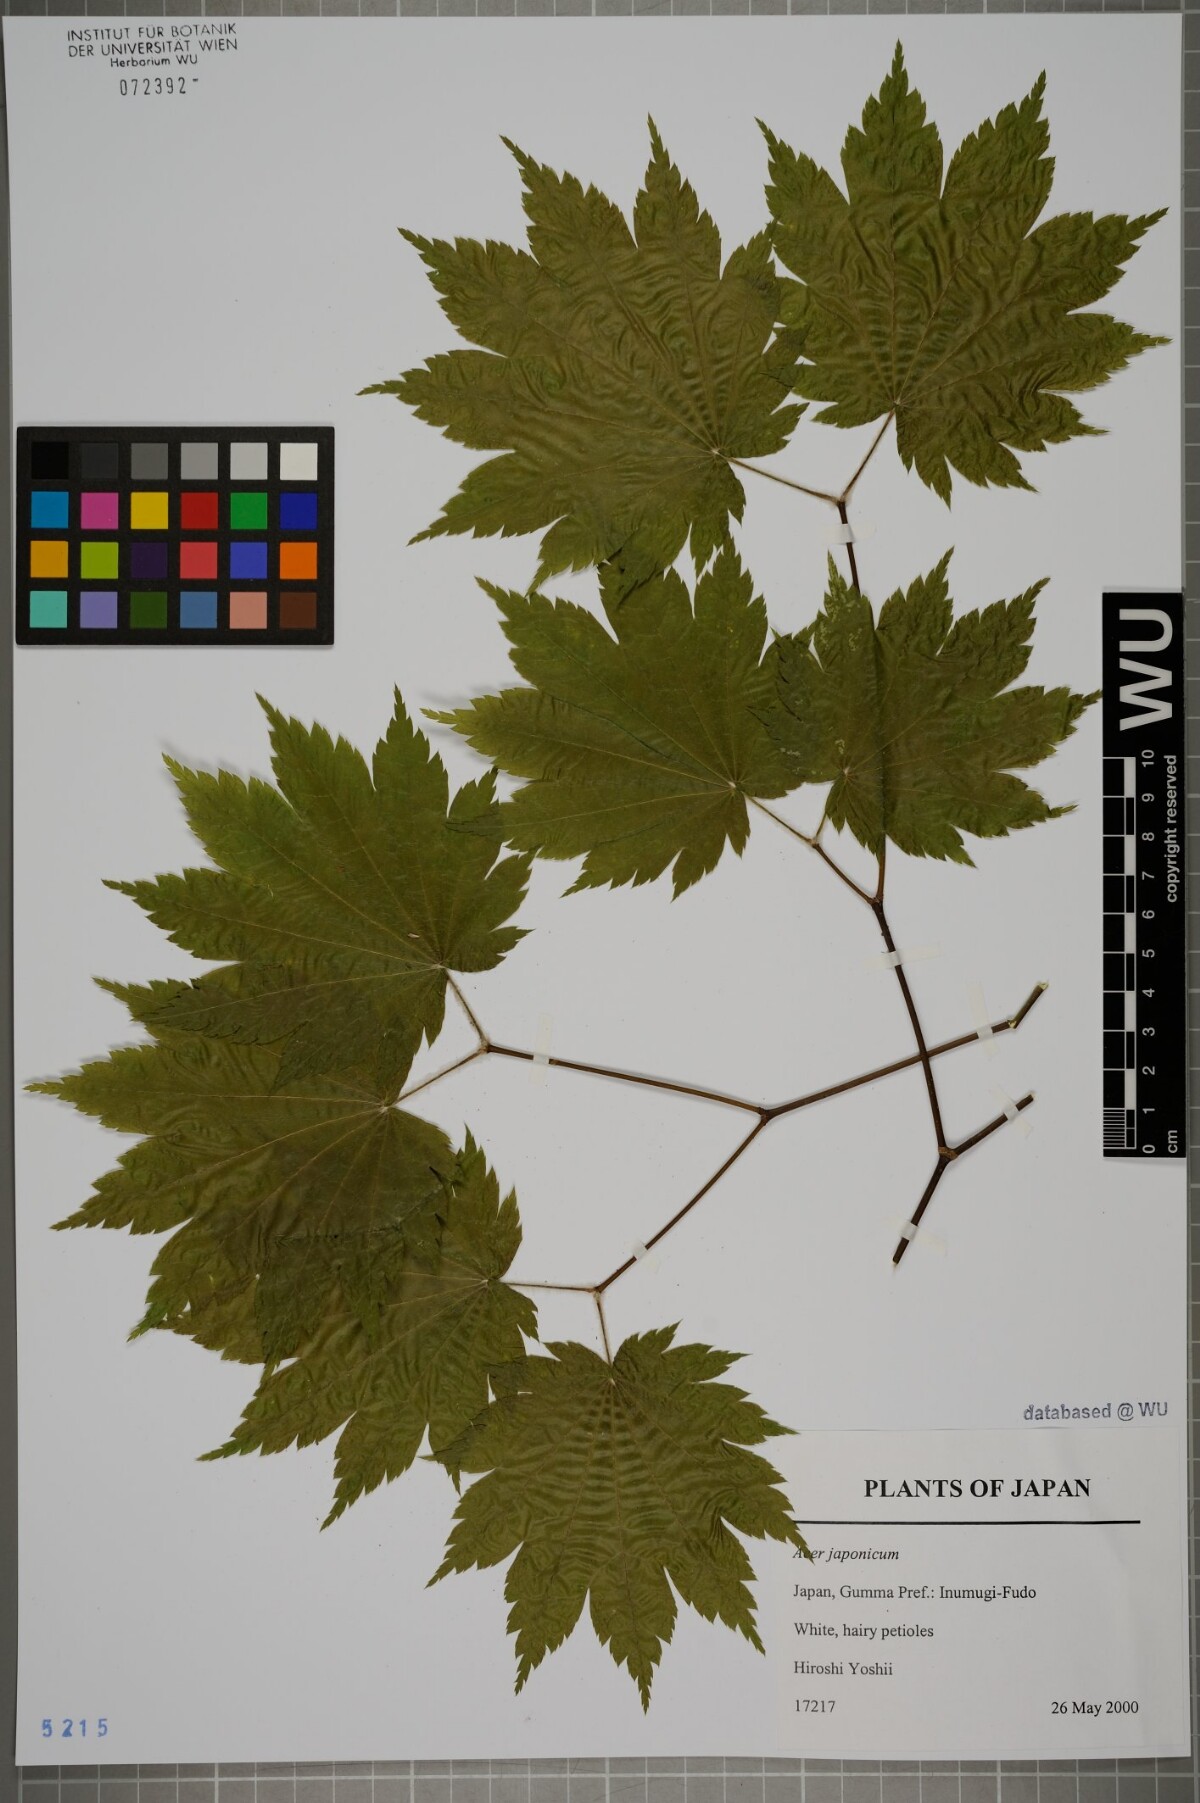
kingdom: Plantae
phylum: Tracheophyta
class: Magnoliopsida
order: Sapindales
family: Sapindaceae
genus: Acer
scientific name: Acer japonicum
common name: Amur maple
